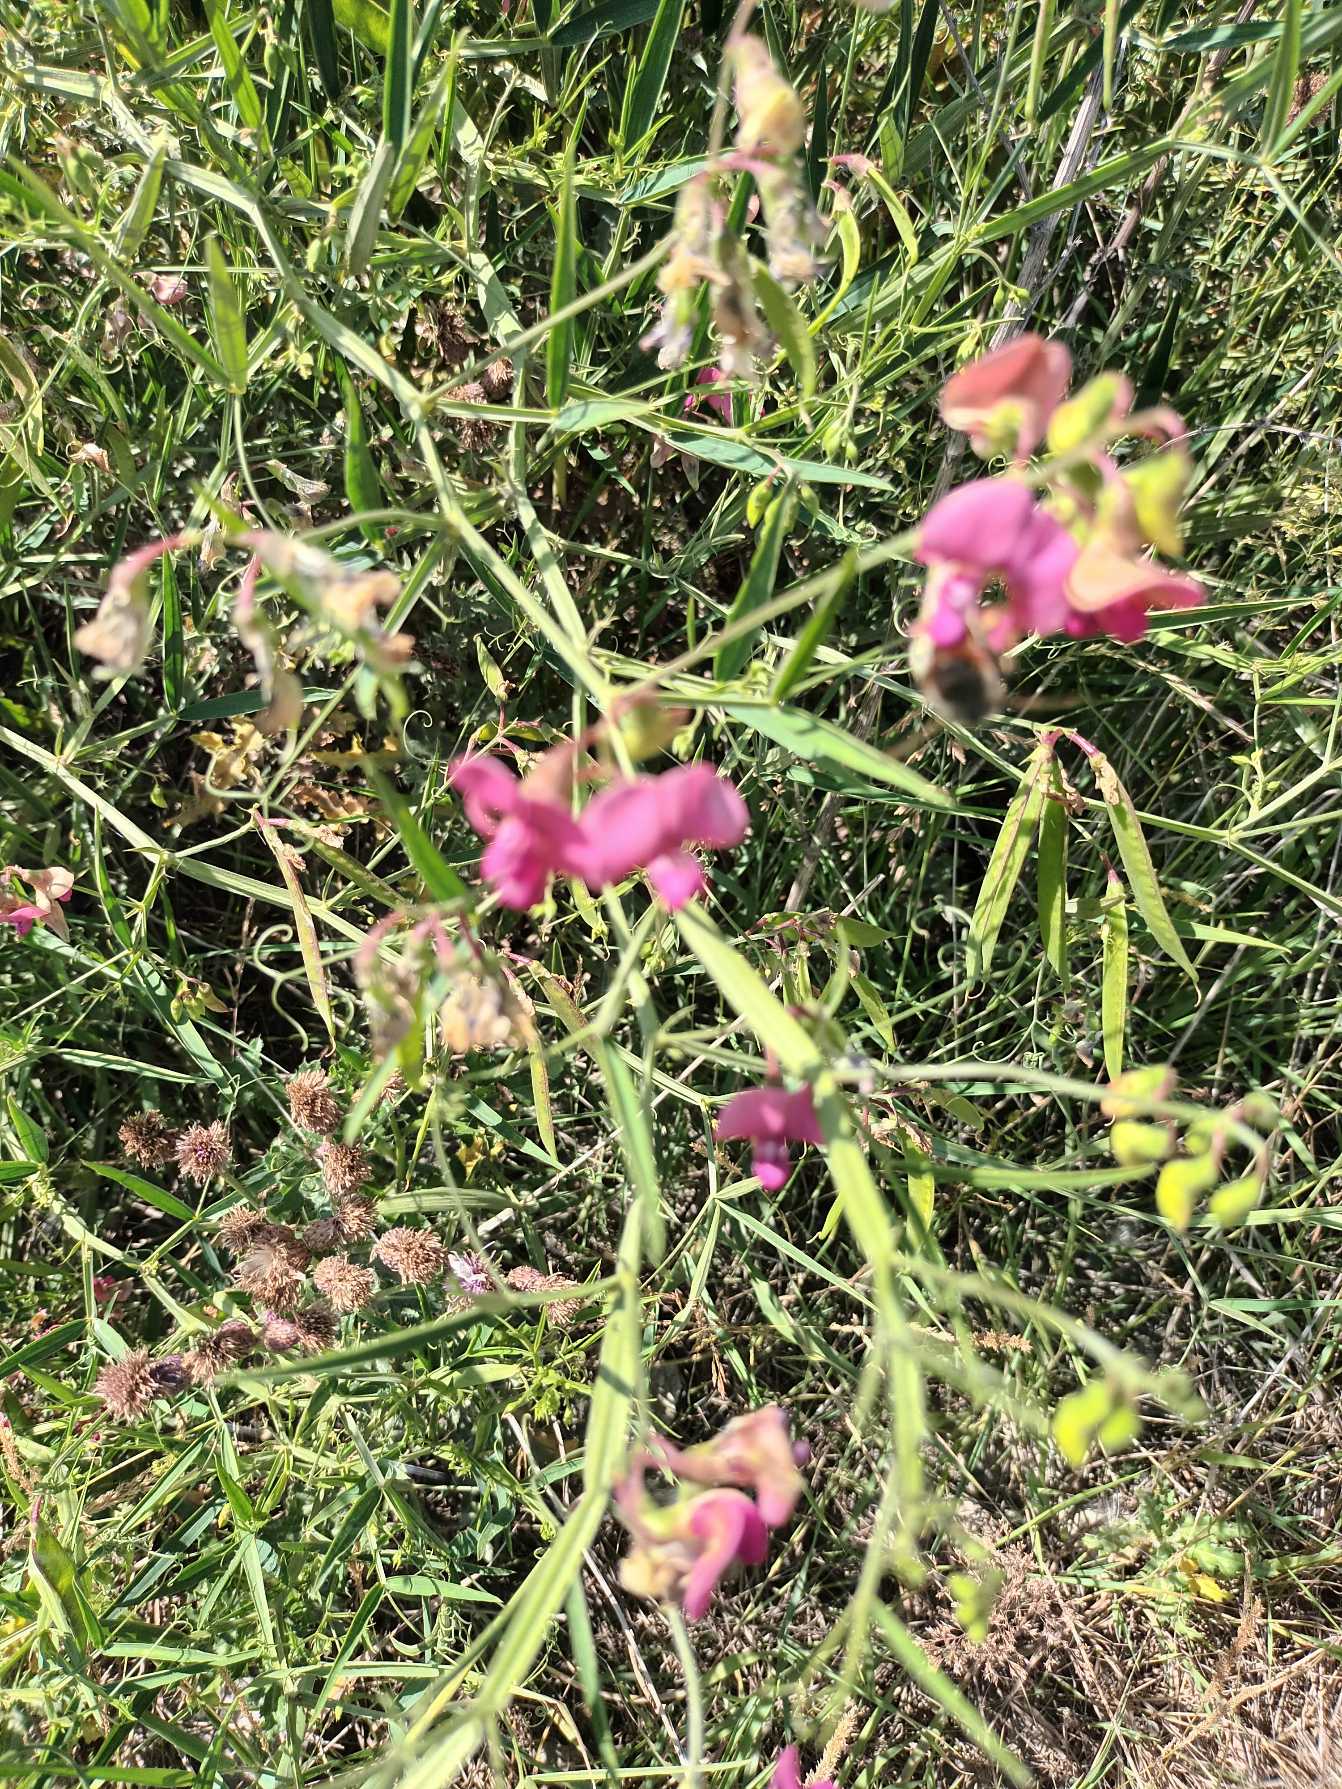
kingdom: Plantae
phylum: Tracheophyta
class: Magnoliopsida
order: Fabales
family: Fabaceae
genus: Lathyrus
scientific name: Lathyrus sylvestris
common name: Skov-fladbælg
